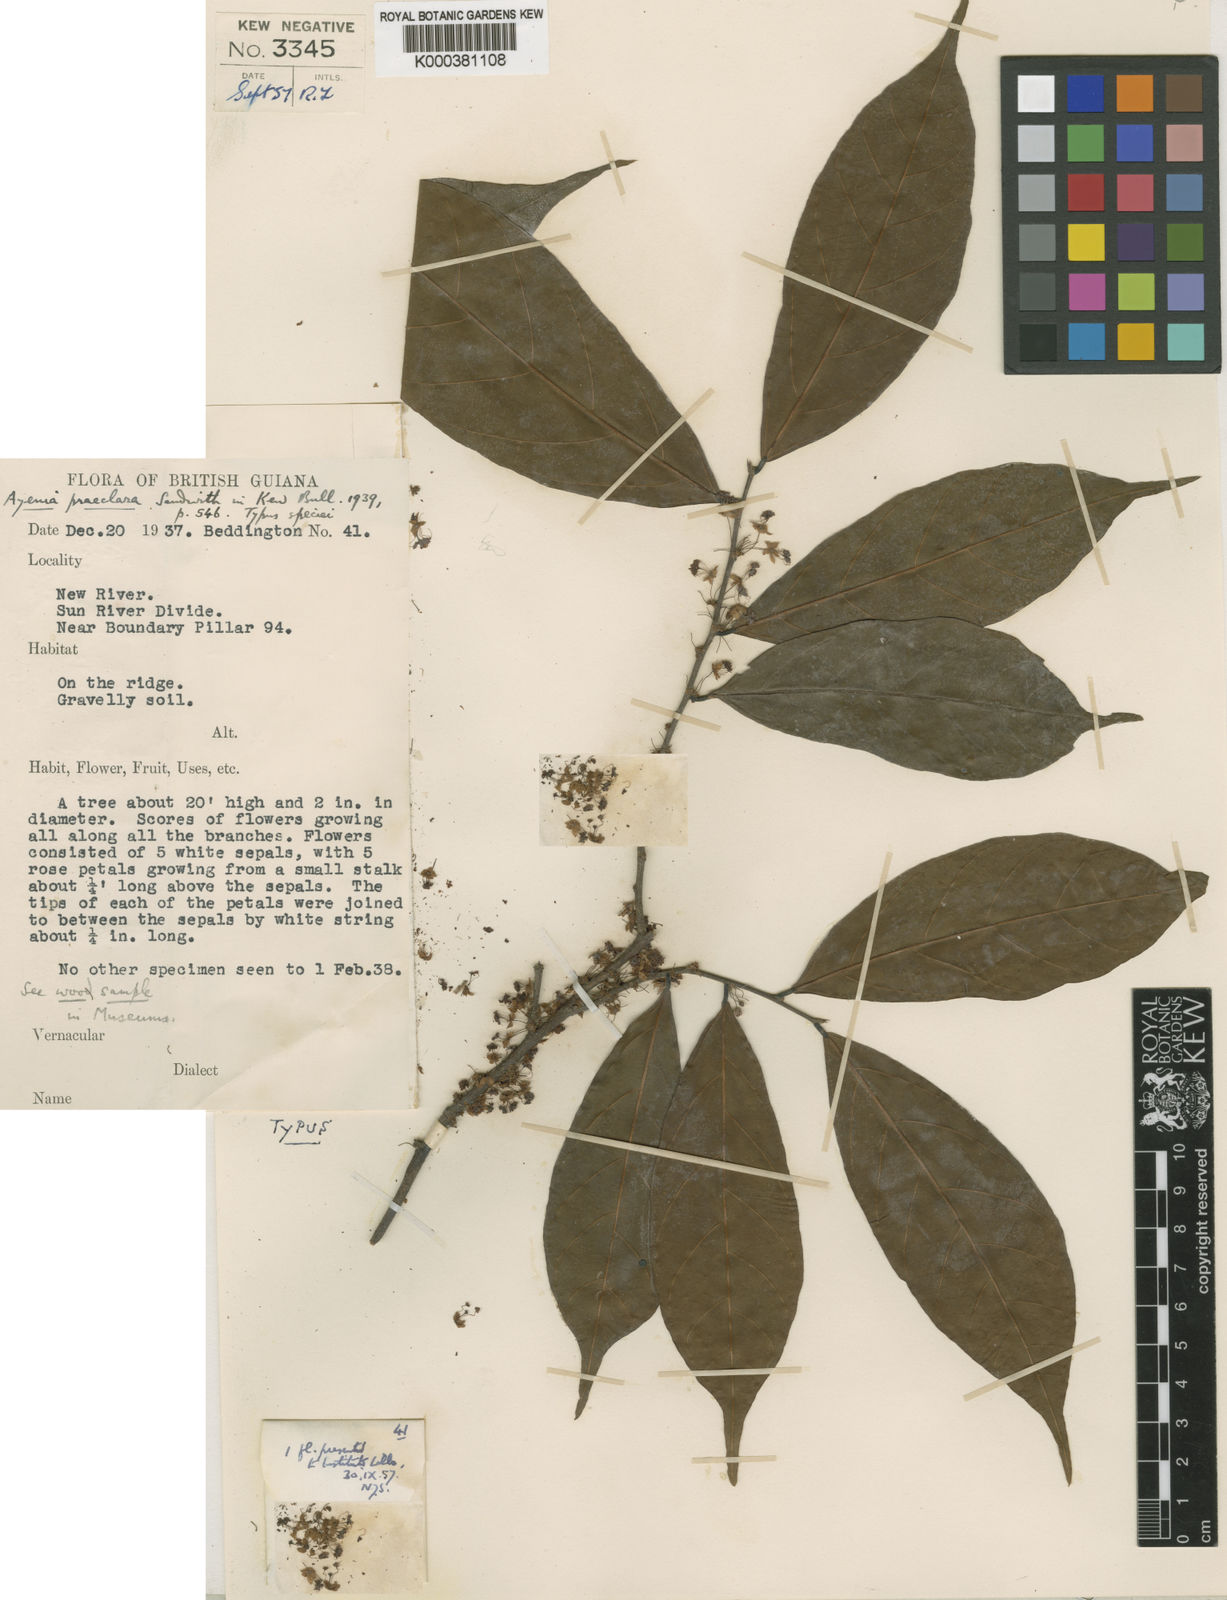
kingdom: Plantae
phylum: Tracheophyta
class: Magnoliopsida
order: Malvales
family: Malvaceae
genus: Ayenia
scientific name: Ayenia praeclara
